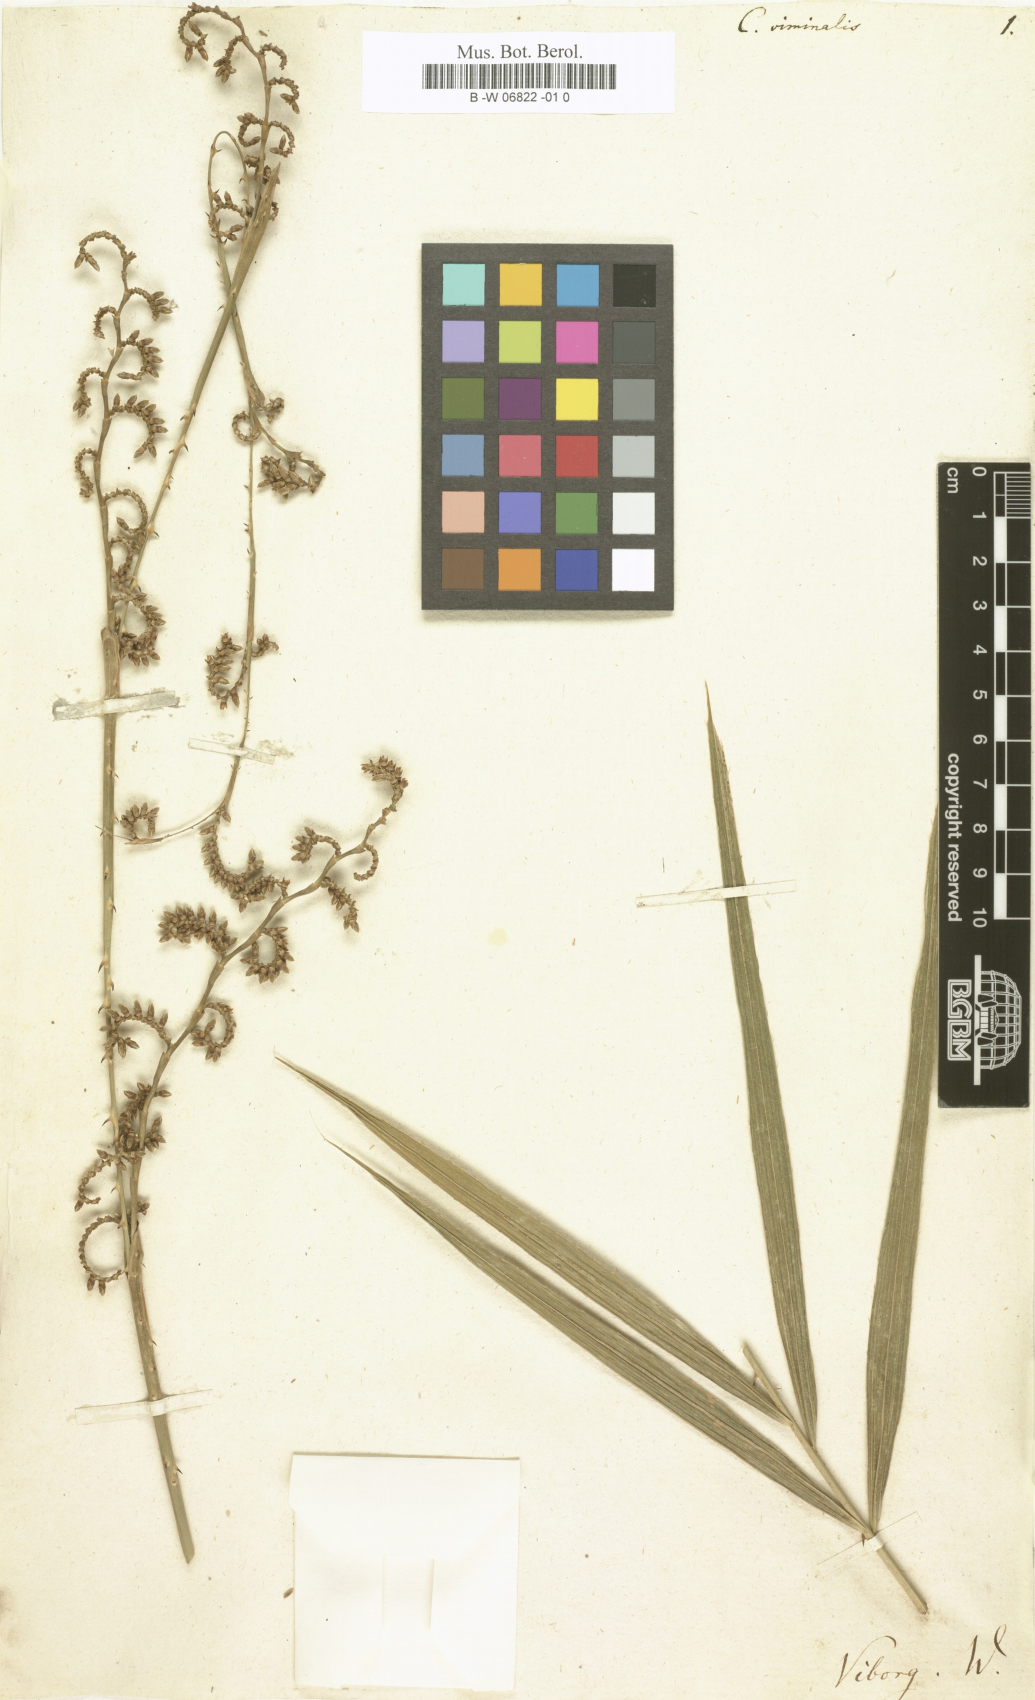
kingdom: Plantae
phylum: Tracheophyta
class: Liliopsida
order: Arecales
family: Arecaceae
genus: Calamus
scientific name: Calamus viminalis
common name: Osier-like rattan palm
